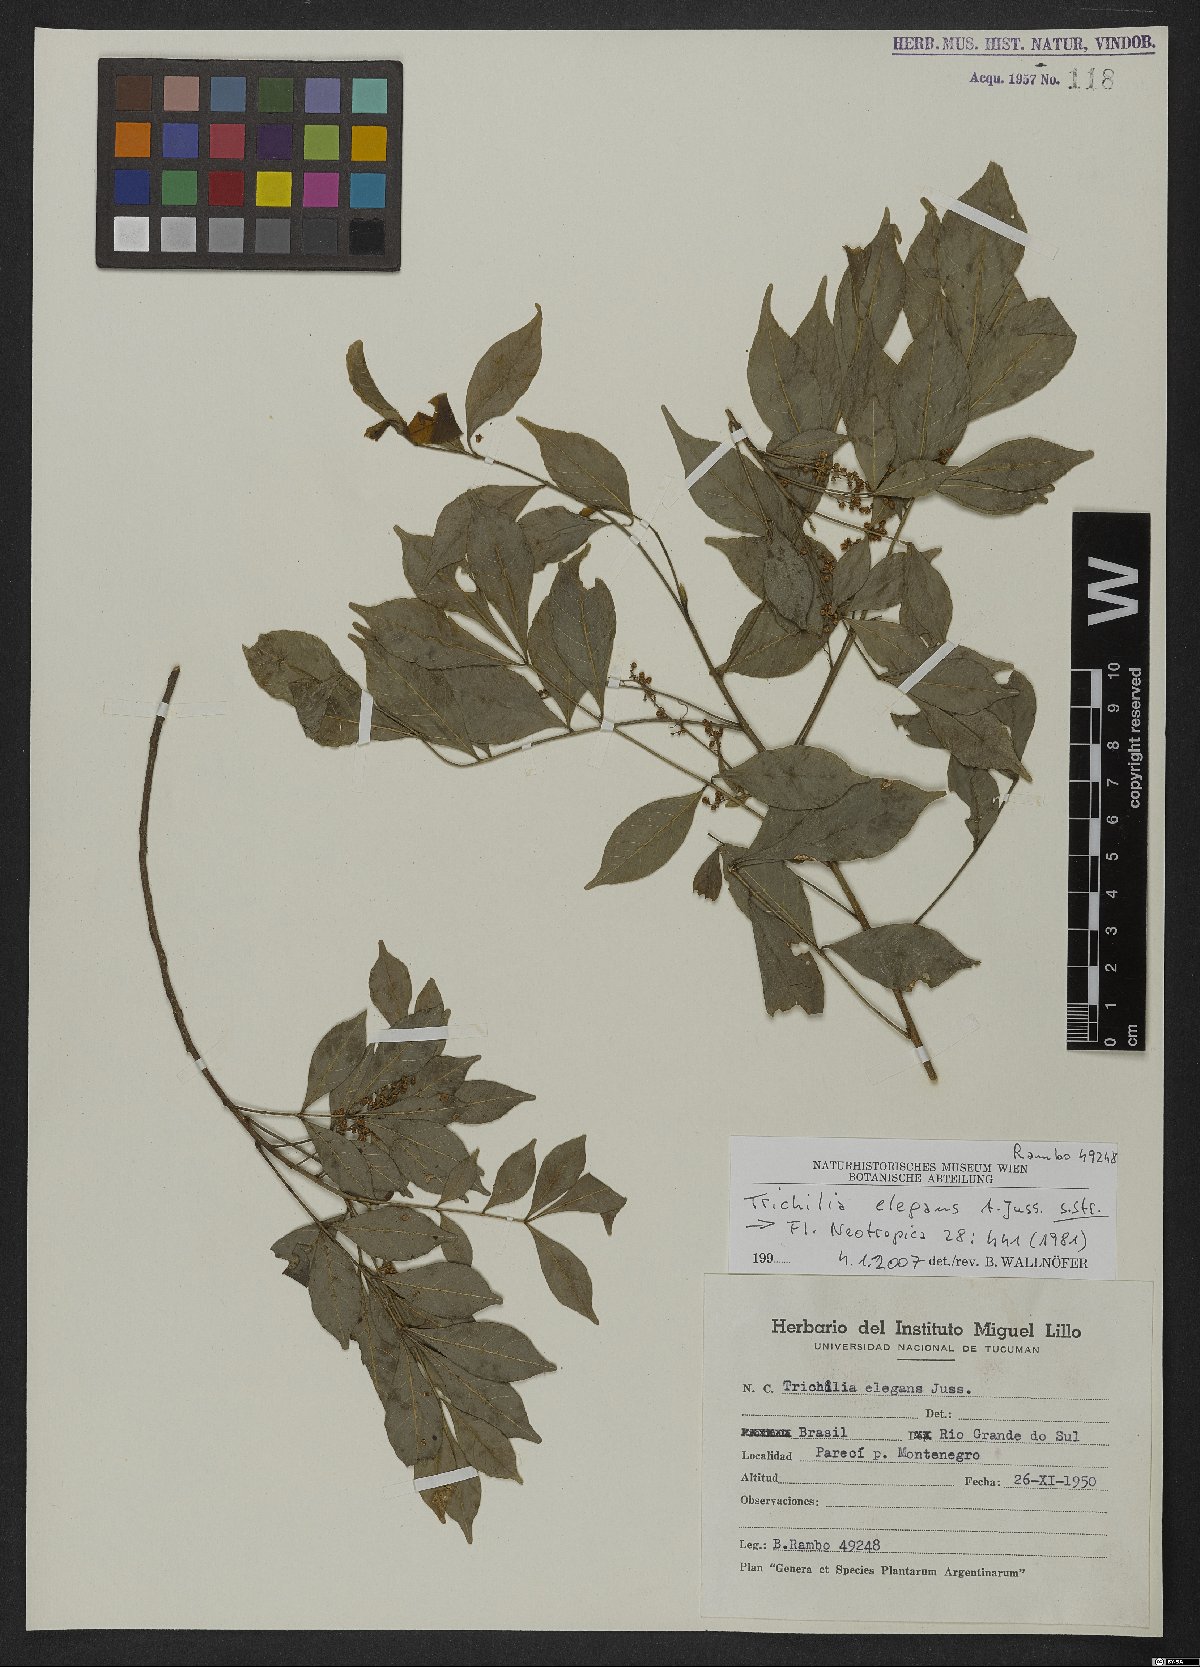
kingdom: Plantae
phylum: Tracheophyta
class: Magnoliopsida
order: Sapindales
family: Meliaceae
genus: Trichilia
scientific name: Trichilia elegans
